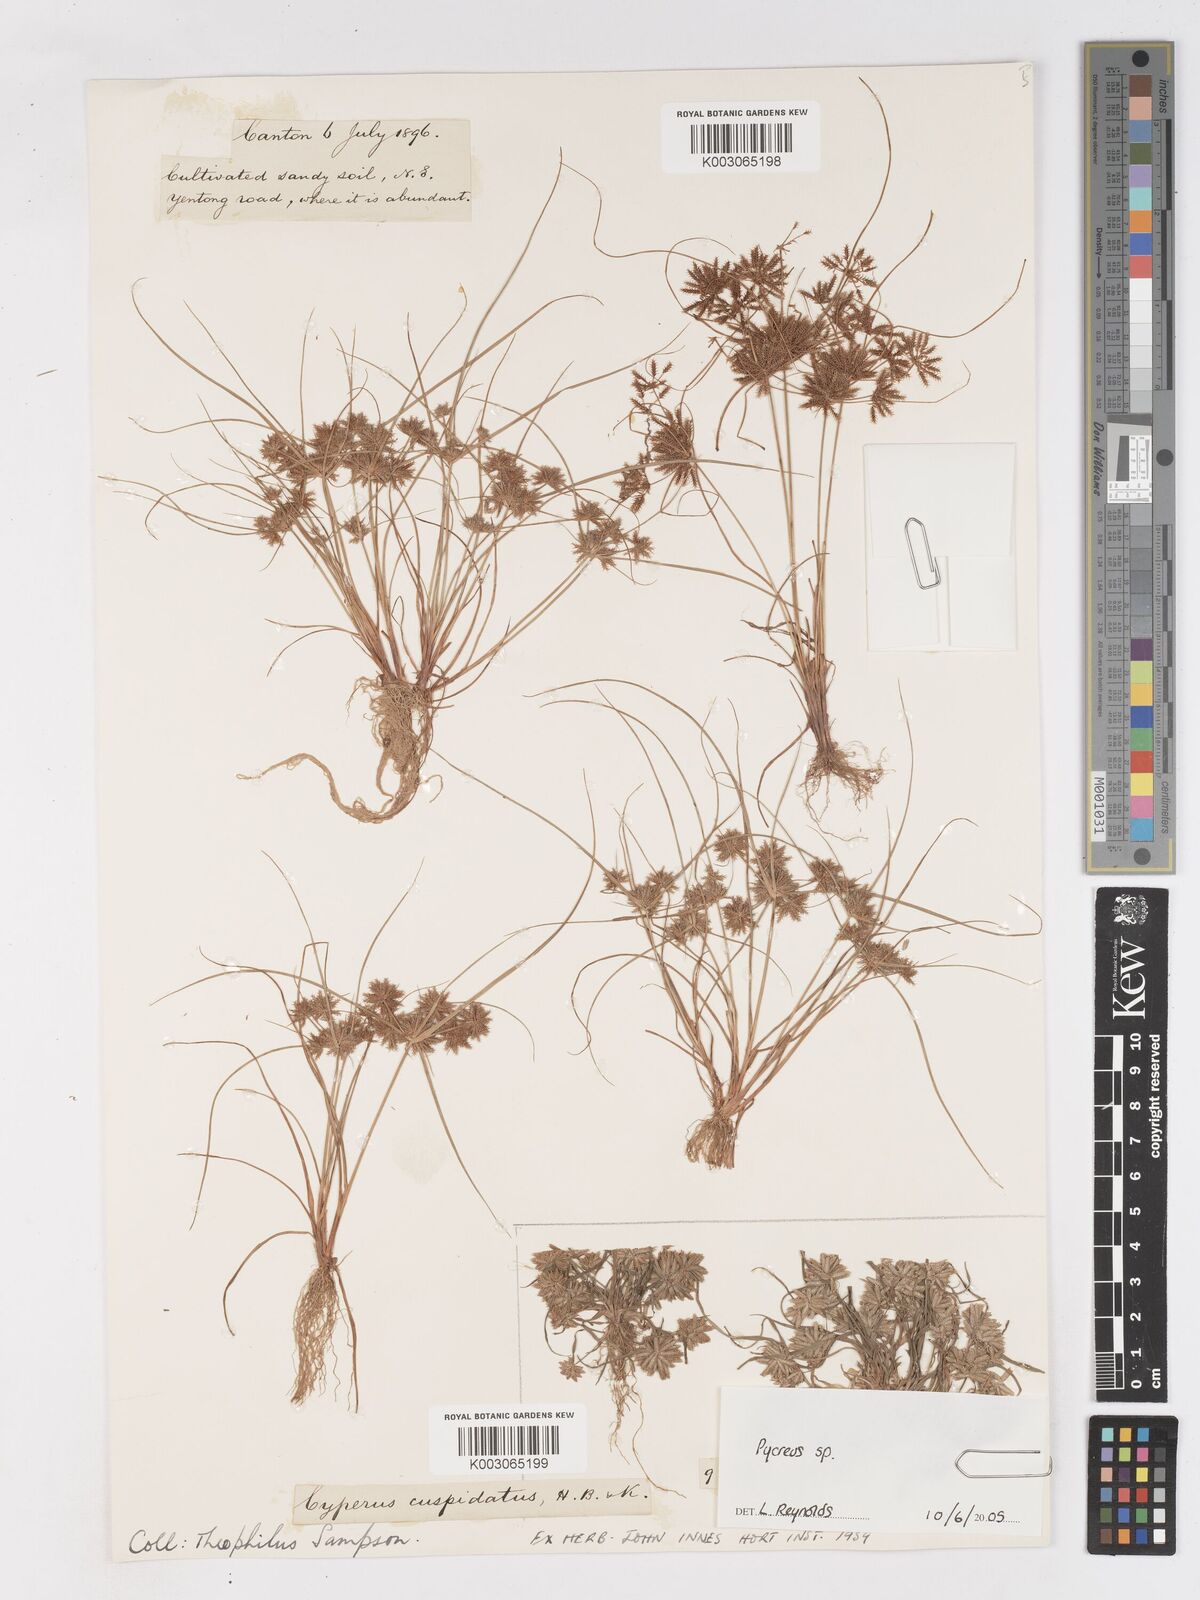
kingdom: Plantae
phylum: Tracheophyta
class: Liliopsida
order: Poales
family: Cyperaceae
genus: Cyperus
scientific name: Cyperus cuspidatus
